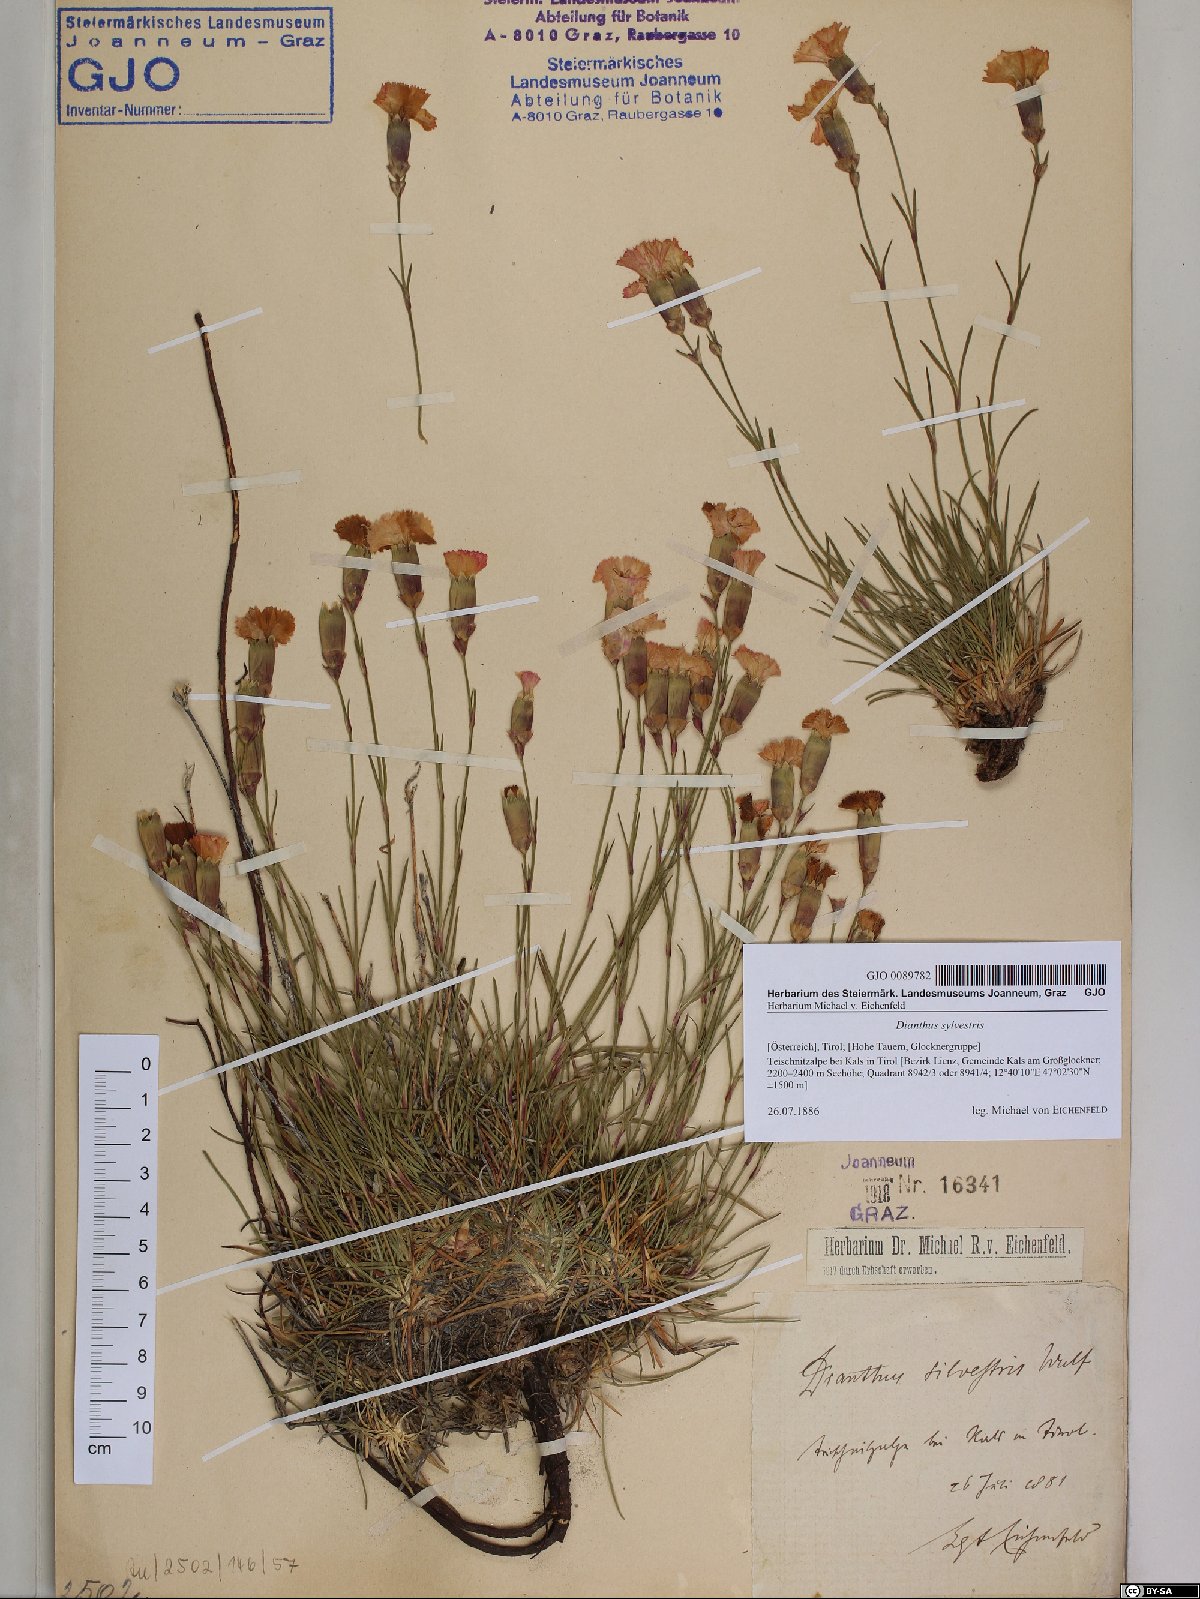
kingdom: Plantae
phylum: Tracheophyta
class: Magnoliopsida
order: Caryophyllales
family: Caryophyllaceae
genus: Dianthus
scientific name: Dianthus sylvestris
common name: Wood pink
